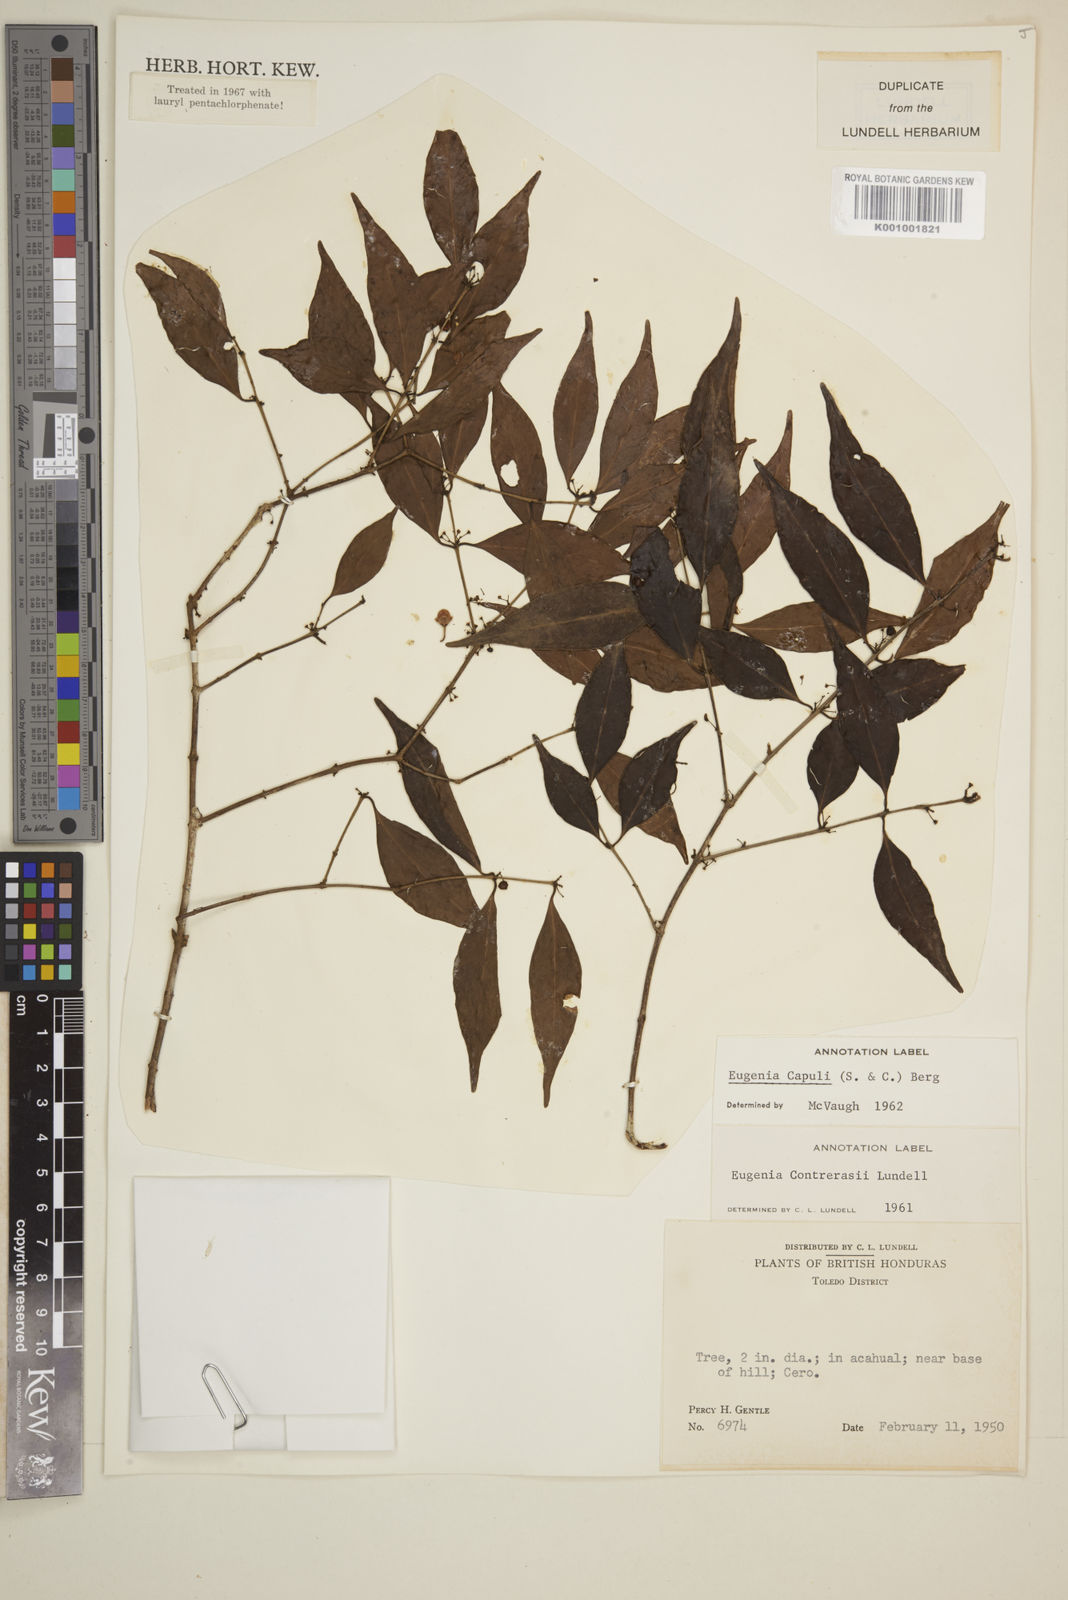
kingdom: Plantae
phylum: Tracheophyta
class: Magnoliopsida
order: Myrtales
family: Myrtaceae
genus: Eugenia
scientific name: Eugenia capuli
